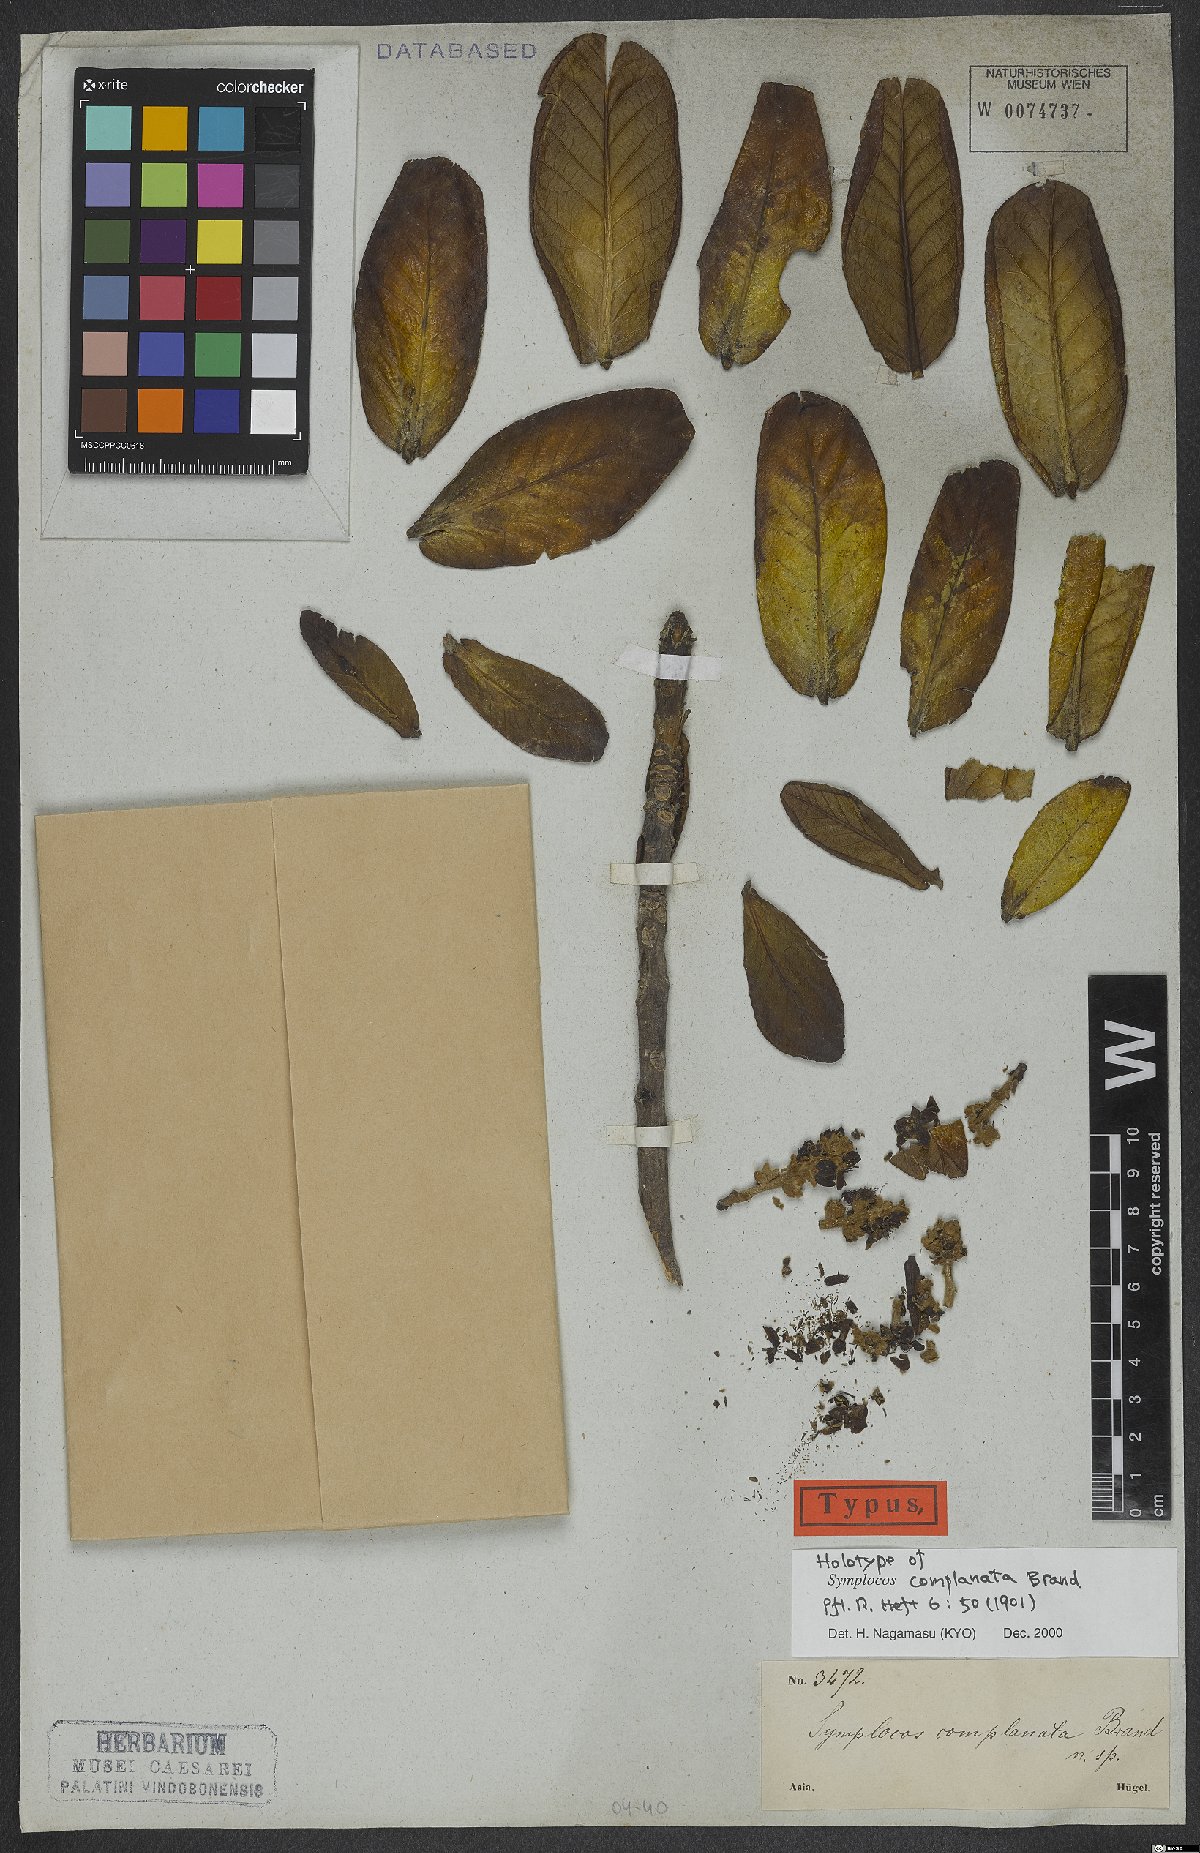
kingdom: Plantae
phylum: Tracheophyta
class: Magnoliopsida
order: Ericales
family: Symplocaceae
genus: Symplocos
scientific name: Symplocos complanata
